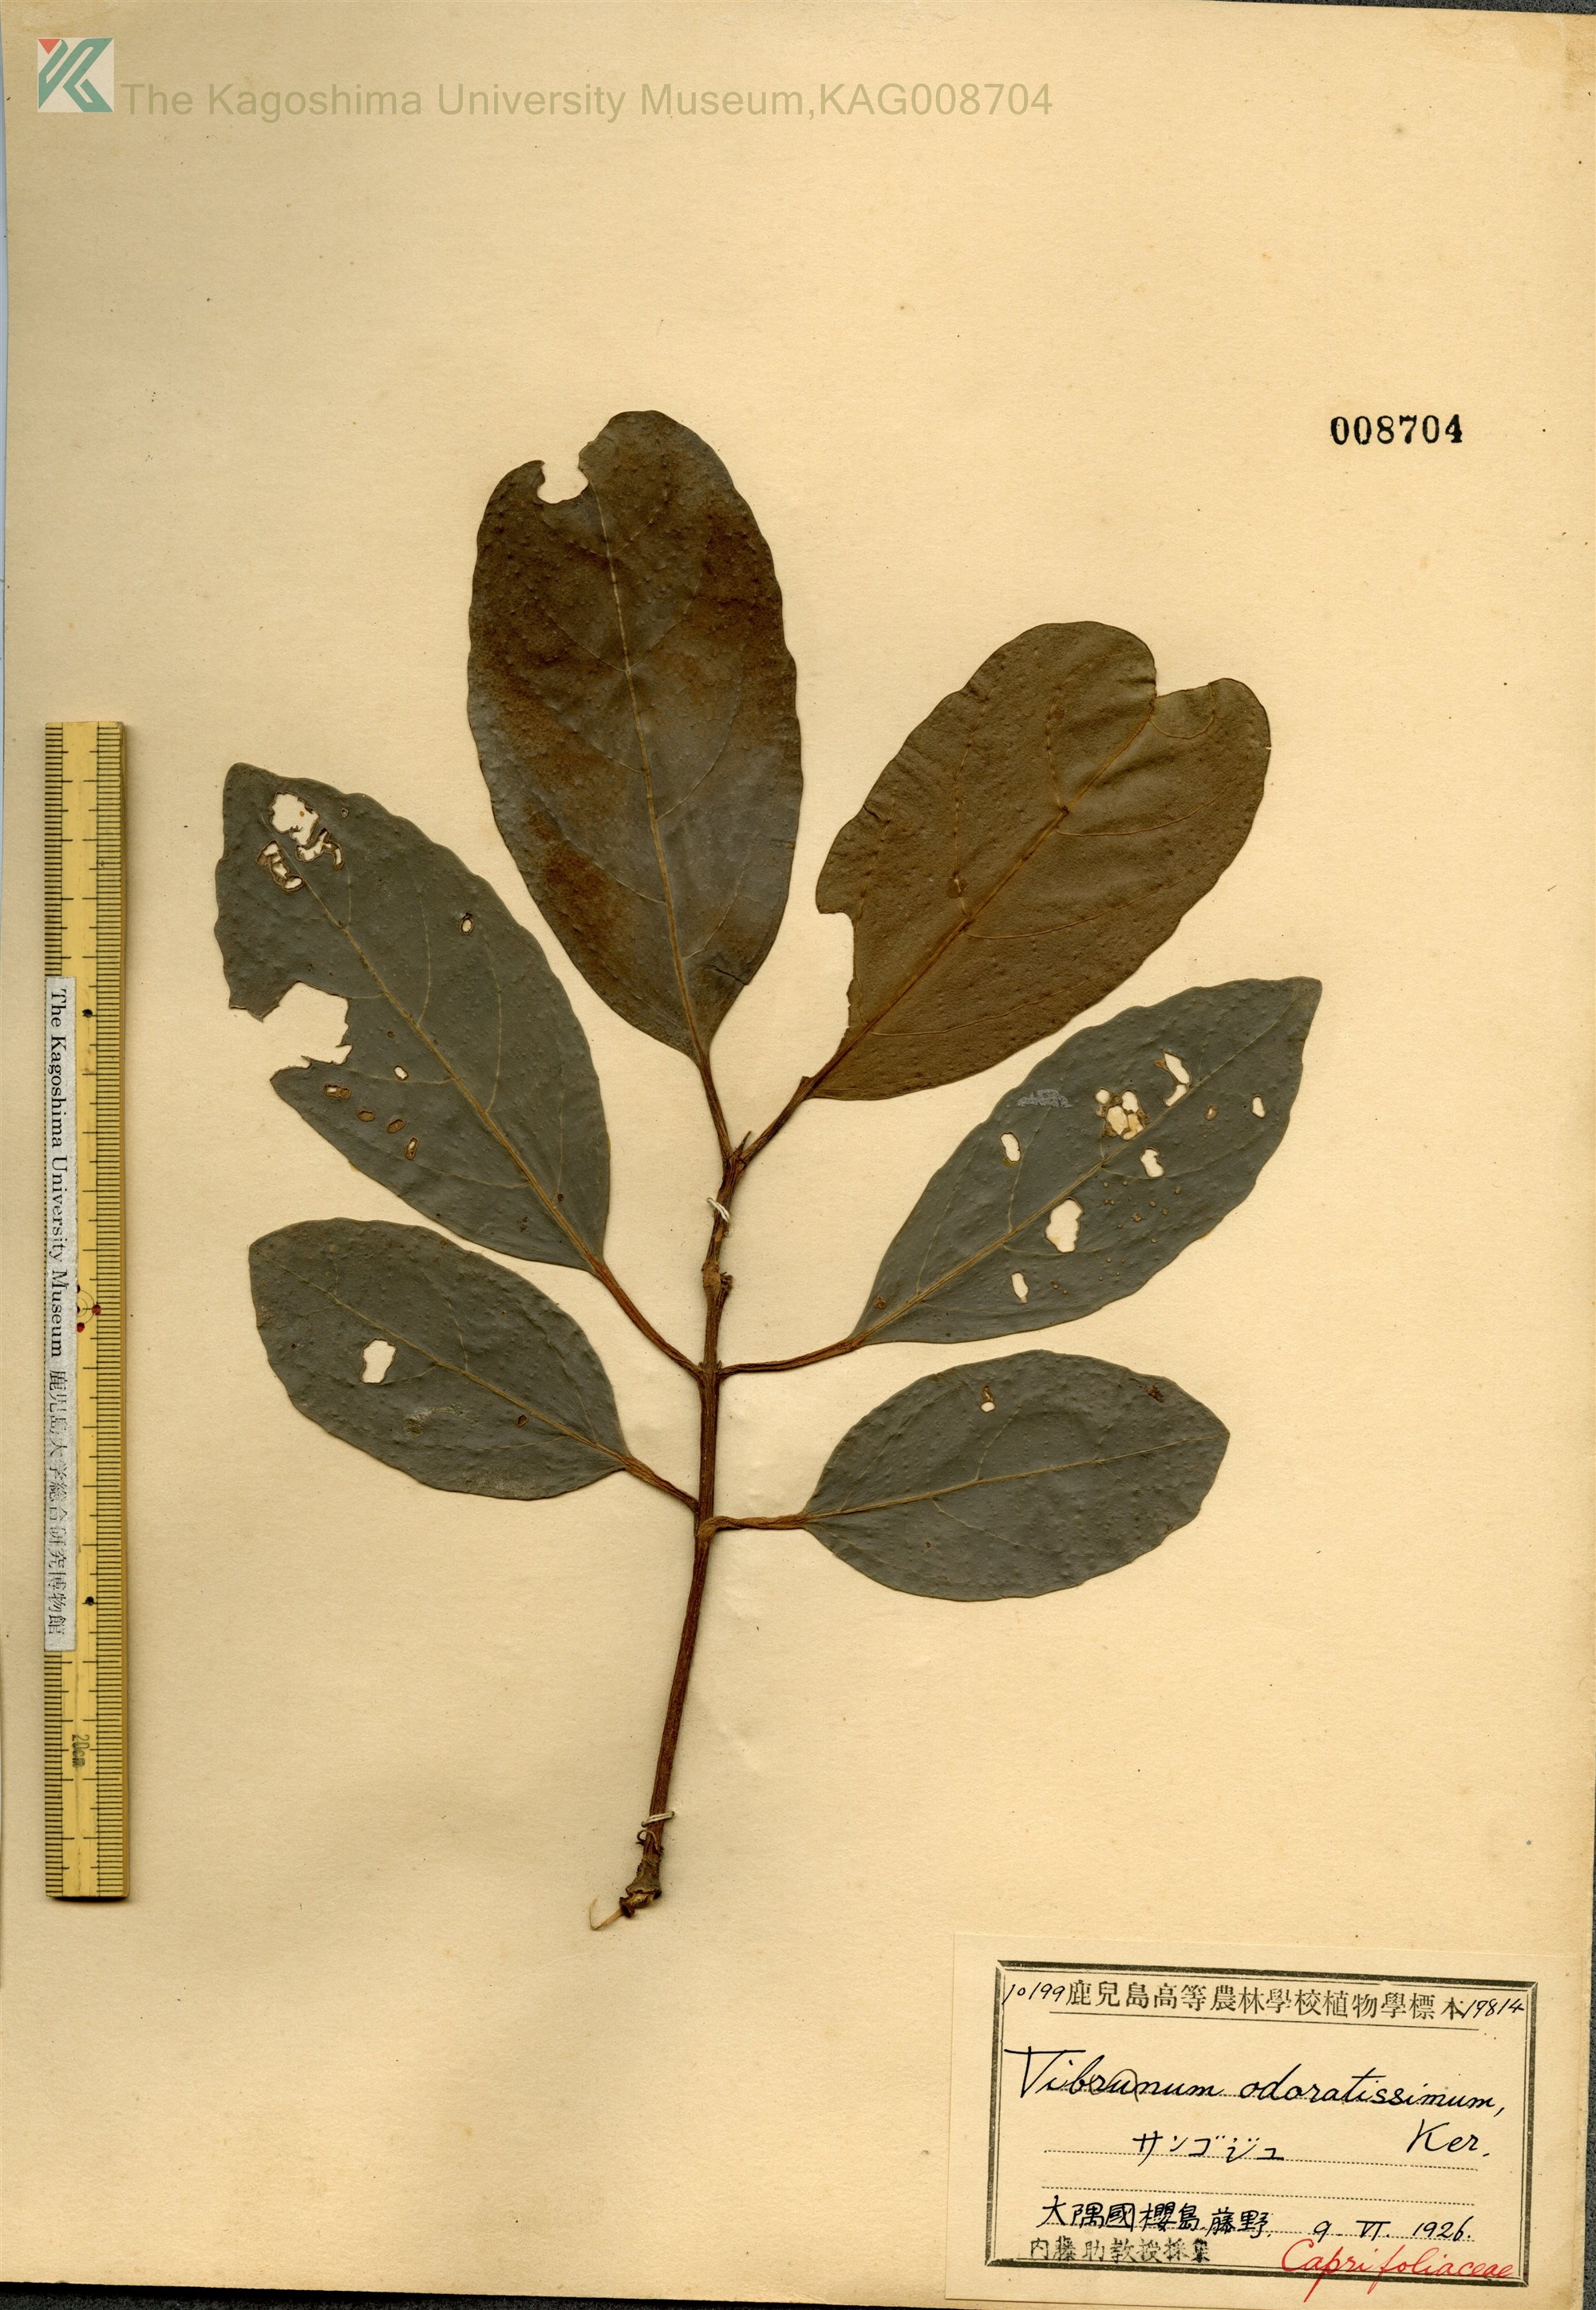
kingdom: Plantae
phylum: Tracheophyta
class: Magnoliopsida
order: Dipsacales
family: Viburnaceae
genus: Viburnum
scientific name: Viburnum odoratissimum
